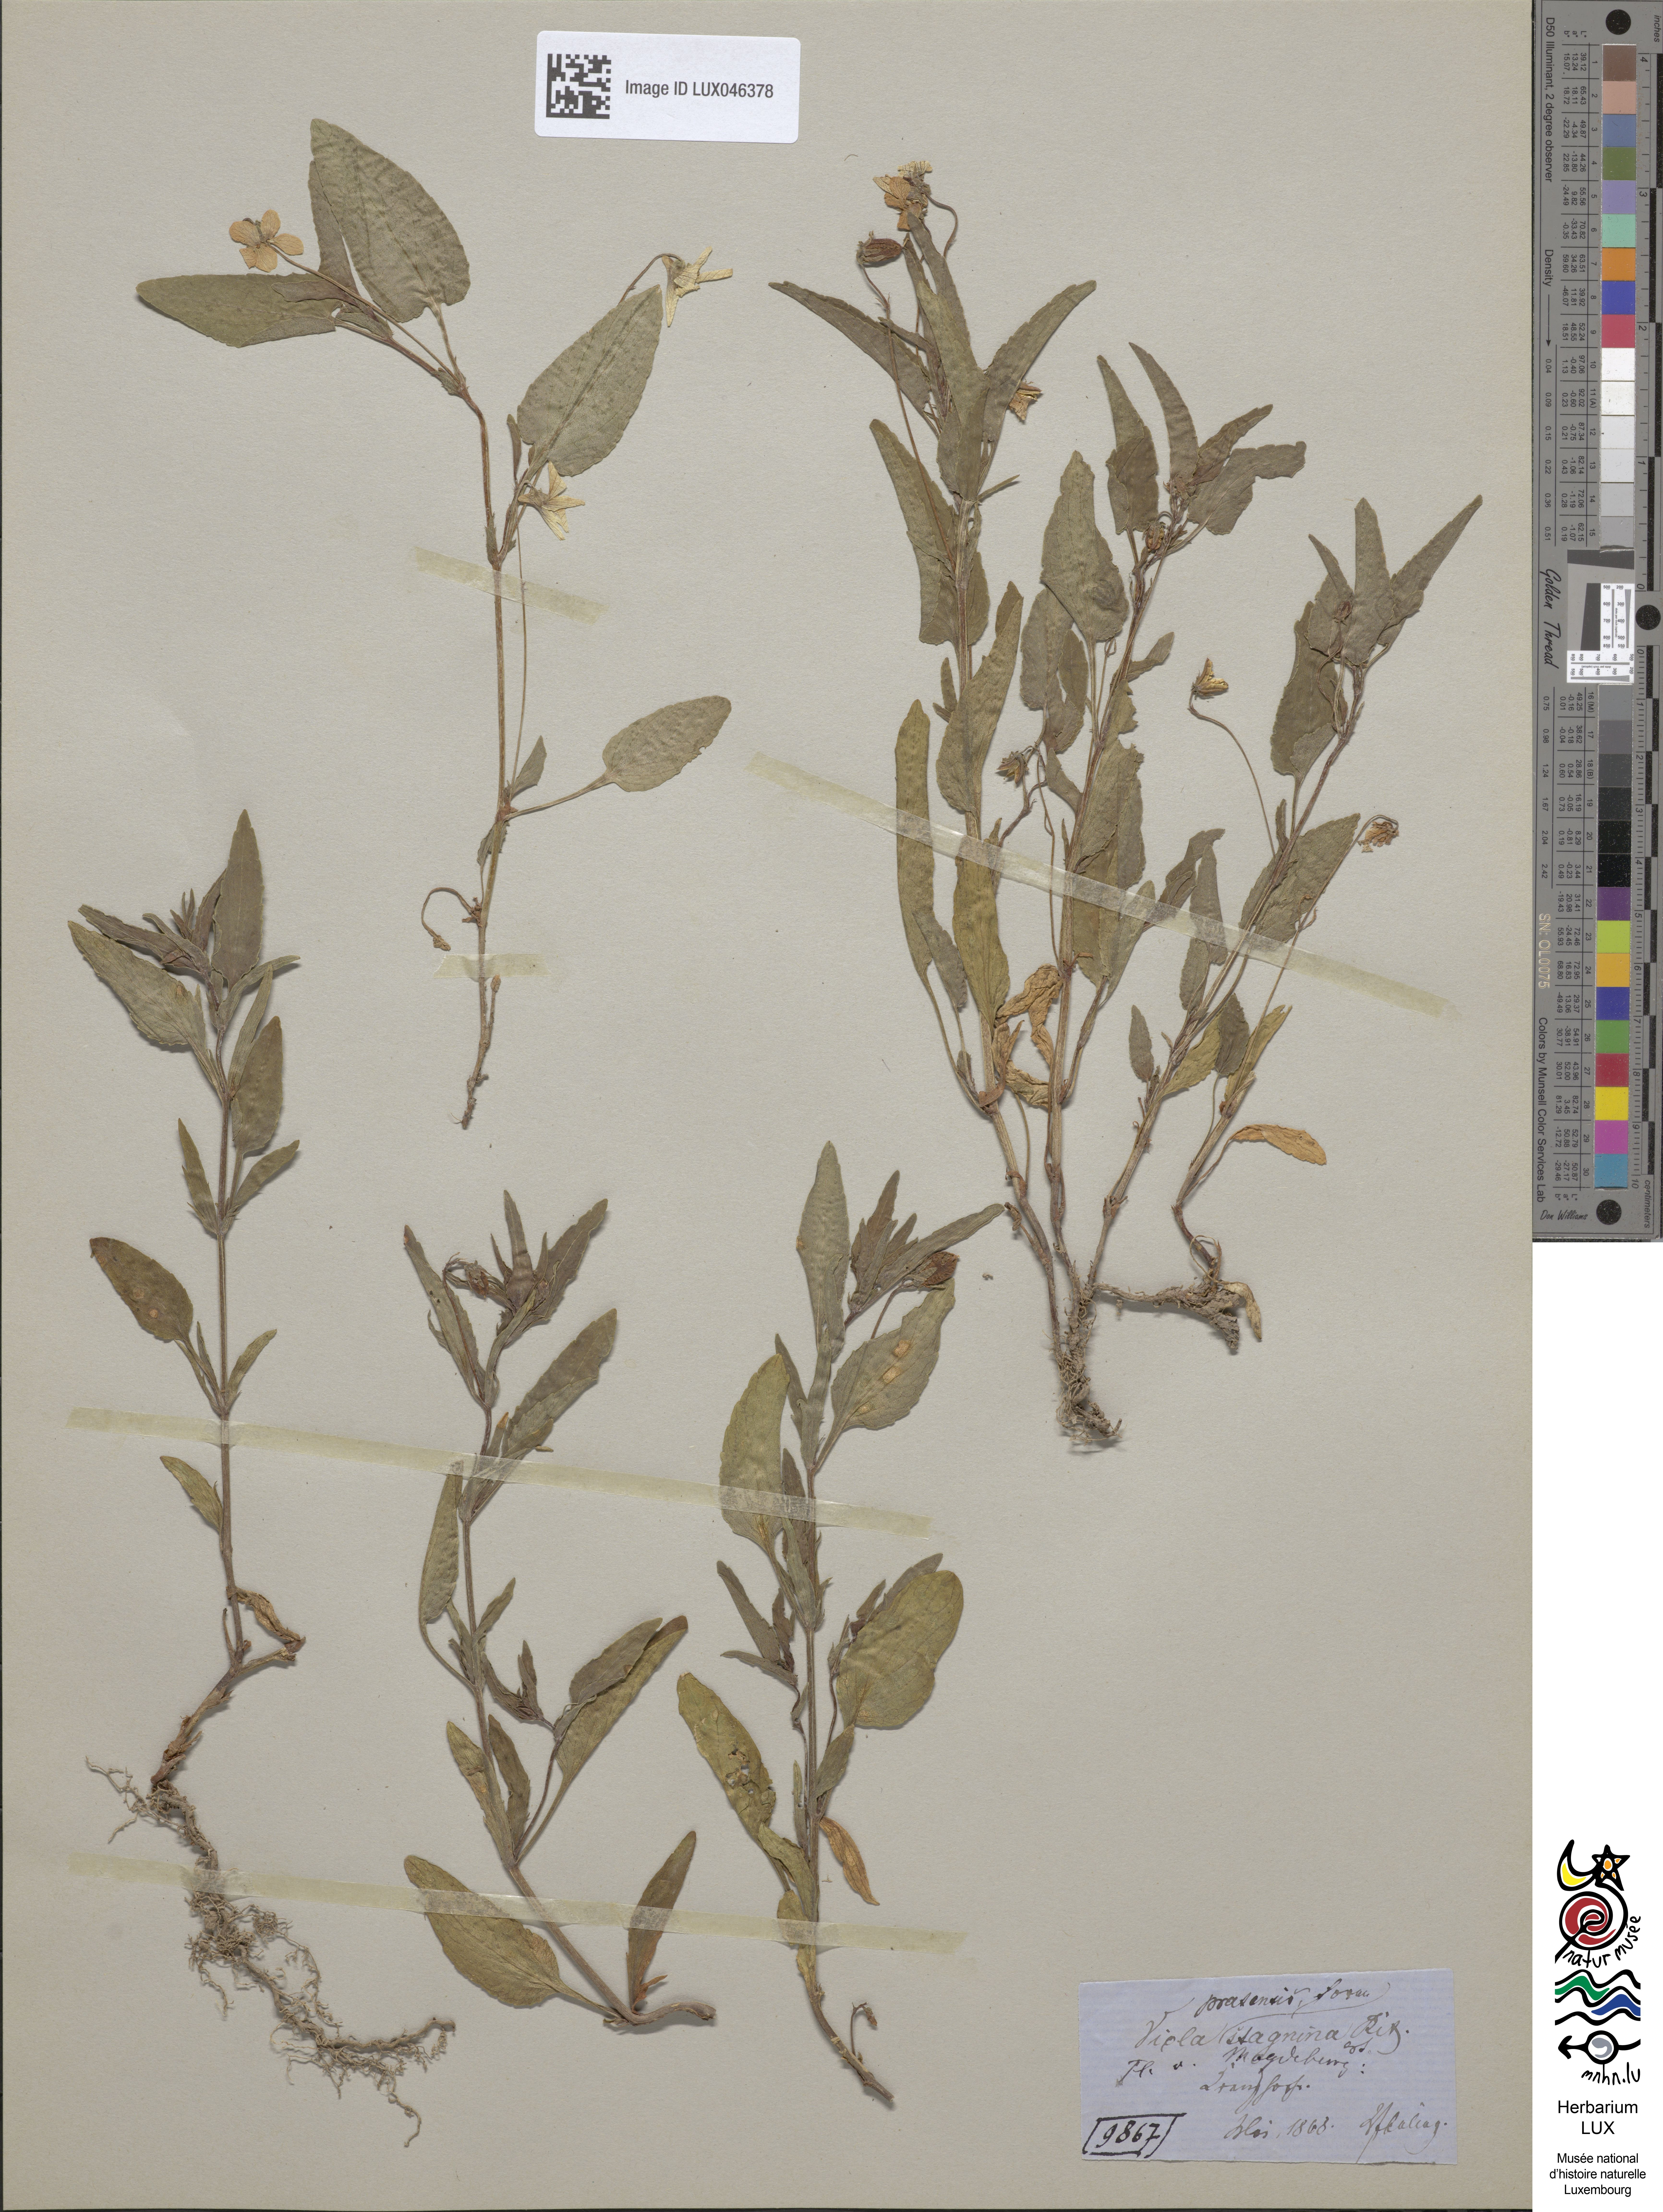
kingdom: Plantae
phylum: Tracheophyta
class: Magnoliopsida
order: Malpighiales
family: Violaceae
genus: Viola
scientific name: Viola stagnina
